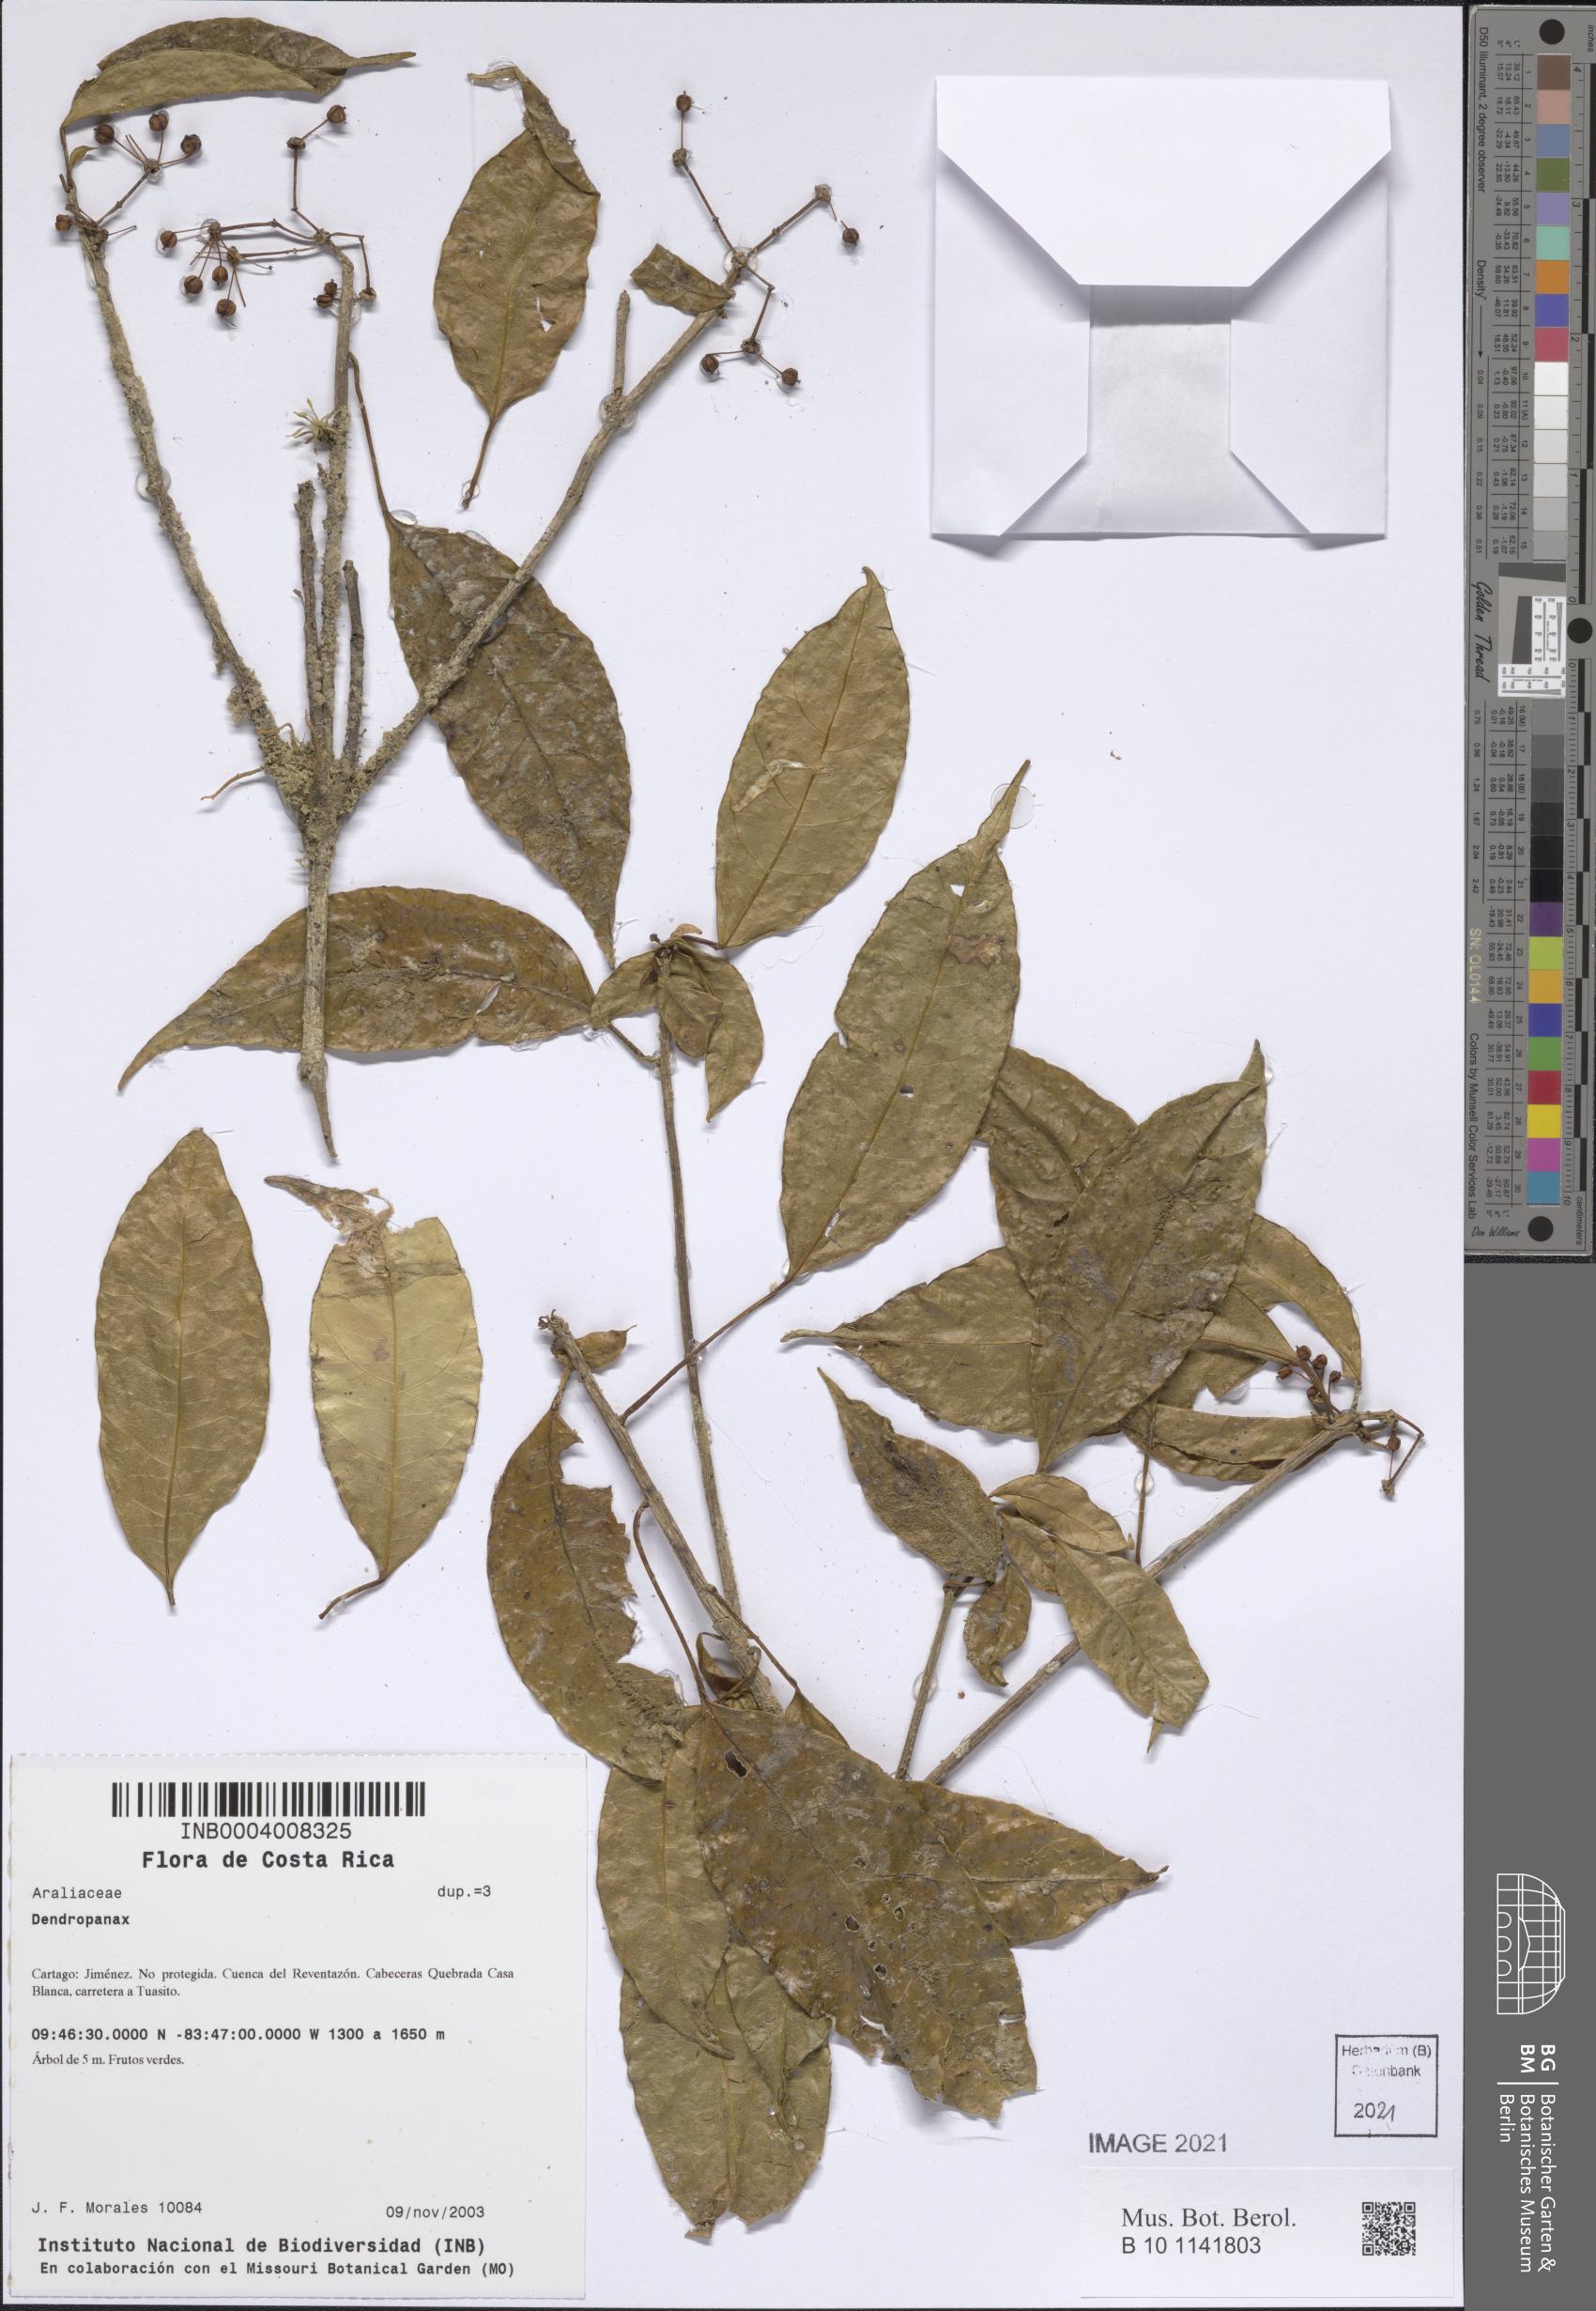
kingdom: Plantae
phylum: Tracheophyta
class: Magnoliopsida
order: Apiales
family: Araliaceae
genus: Dendropanax
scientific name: Dendropanax
